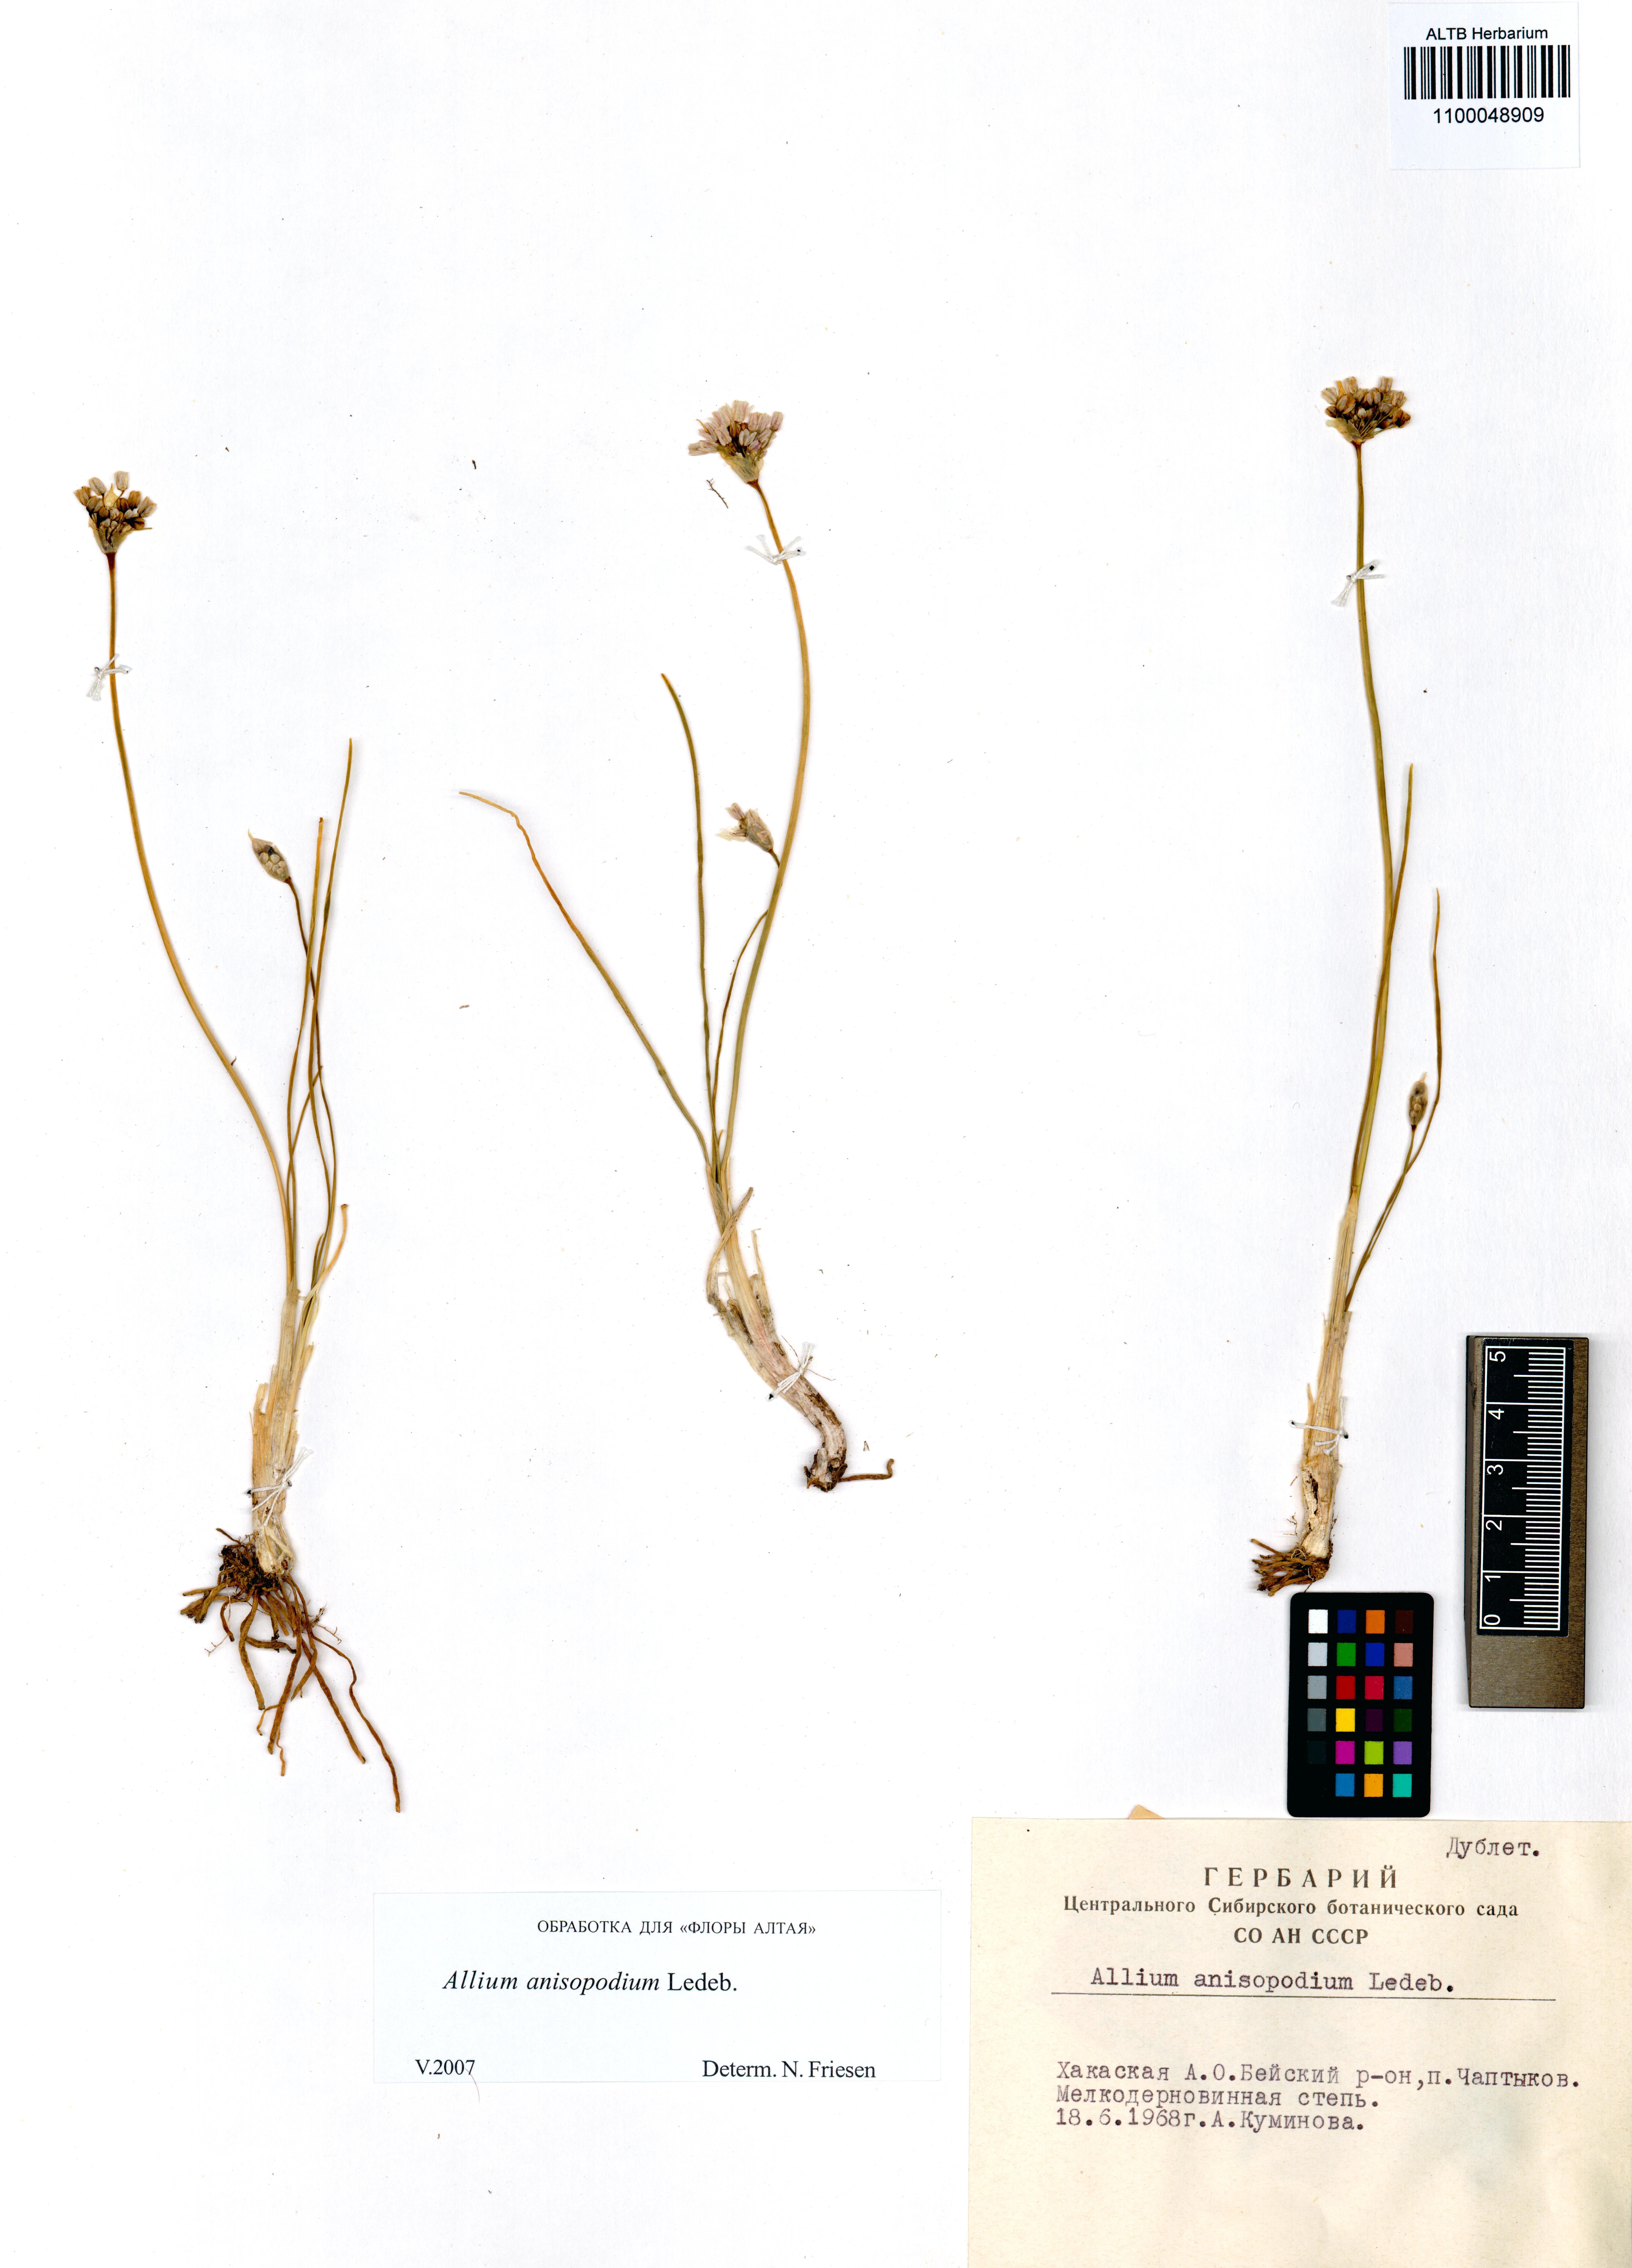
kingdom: Plantae
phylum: Tracheophyta
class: Liliopsida
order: Asparagales
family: Amaryllidaceae
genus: Allium
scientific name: Allium anisopodium
